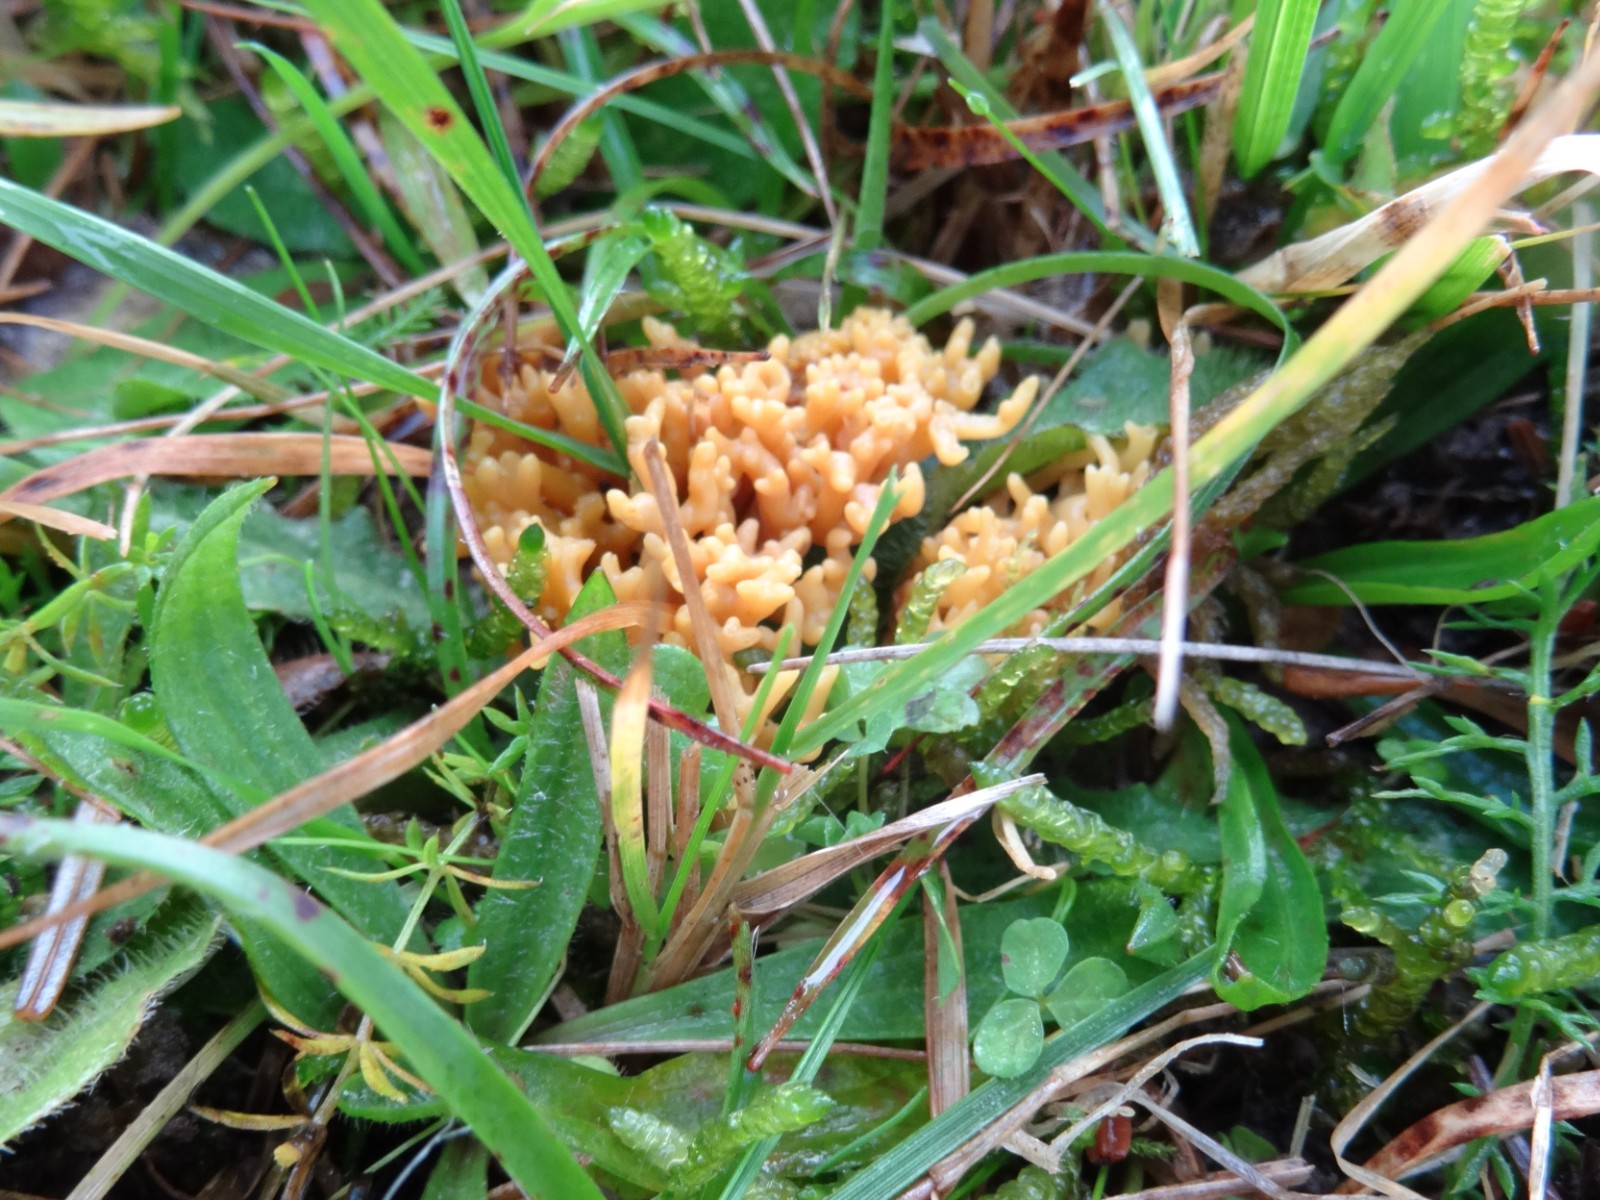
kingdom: Fungi
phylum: Basidiomycota
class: Agaricomycetes
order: Agaricales
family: Clavariaceae
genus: Clavulinopsis
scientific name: Clavulinopsis corniculata
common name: eng-køllesvamp
